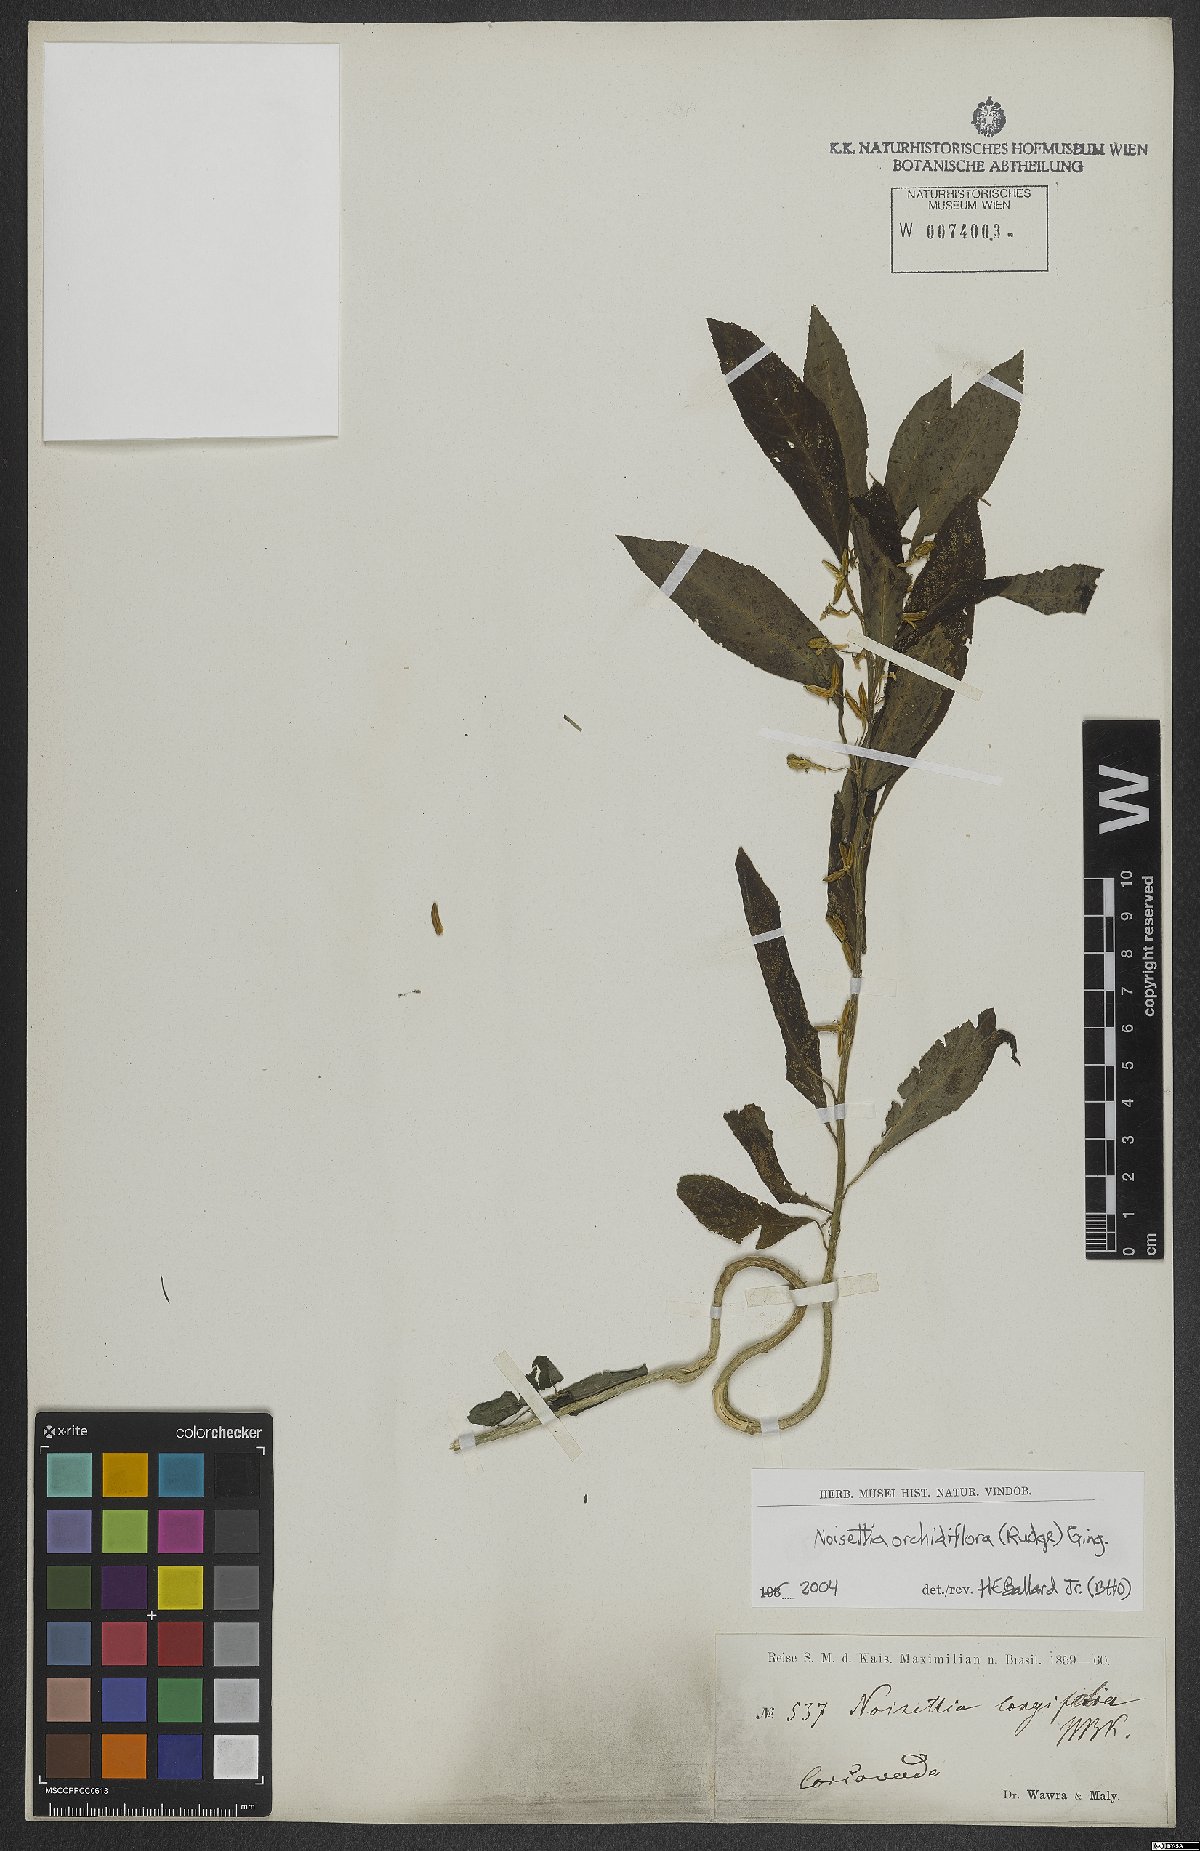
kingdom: Plantae
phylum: Tracheophyta
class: Magnoliopsida
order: Malpighiales
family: Violaceae
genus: Noisettia
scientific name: Noisettia orchidiflora
